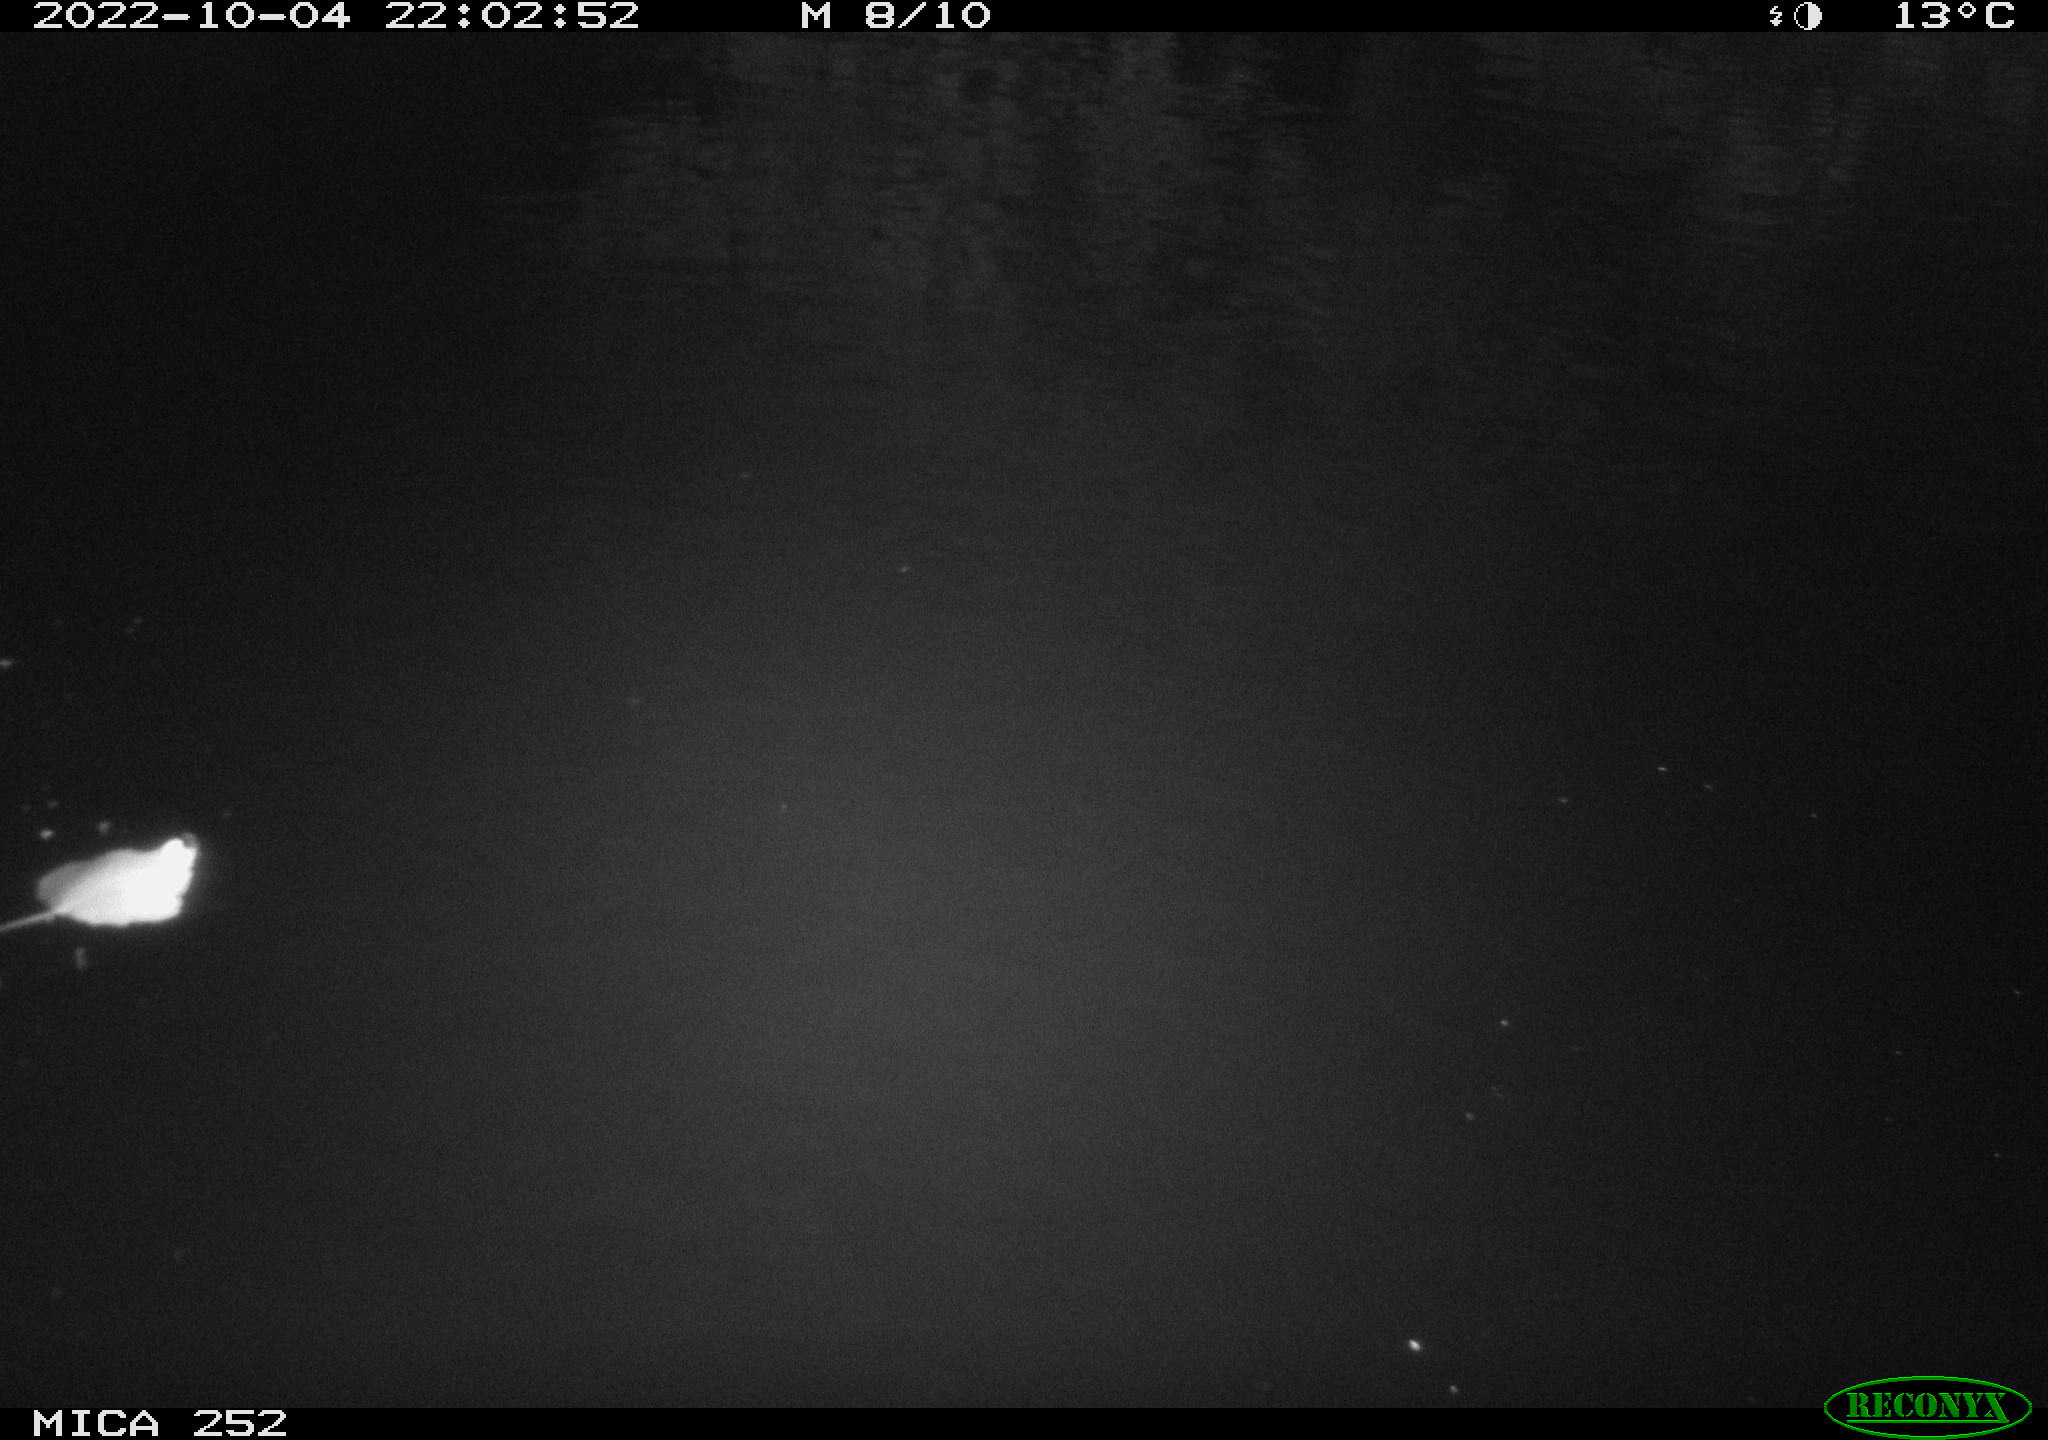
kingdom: Animalia
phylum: Chordata
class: Mammalia
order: Rodentia
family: Castoridae
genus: Castor
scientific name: Castor fiber
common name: Eurasian beaver
